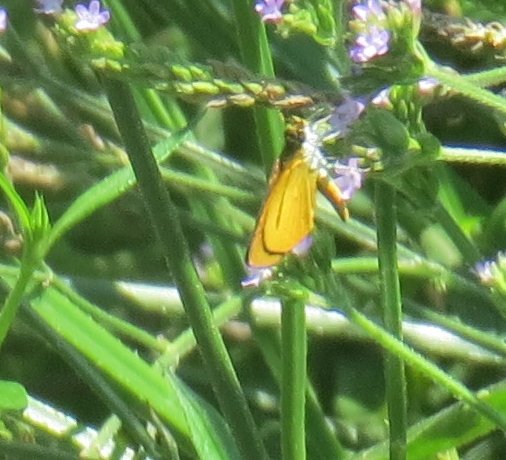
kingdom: Animalia
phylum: Arthropoda
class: Insecta
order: Lepidoptera
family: Hesperiidae
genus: Ancyloxypha
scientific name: Ancyloxypha numitor
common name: Least Skipper
